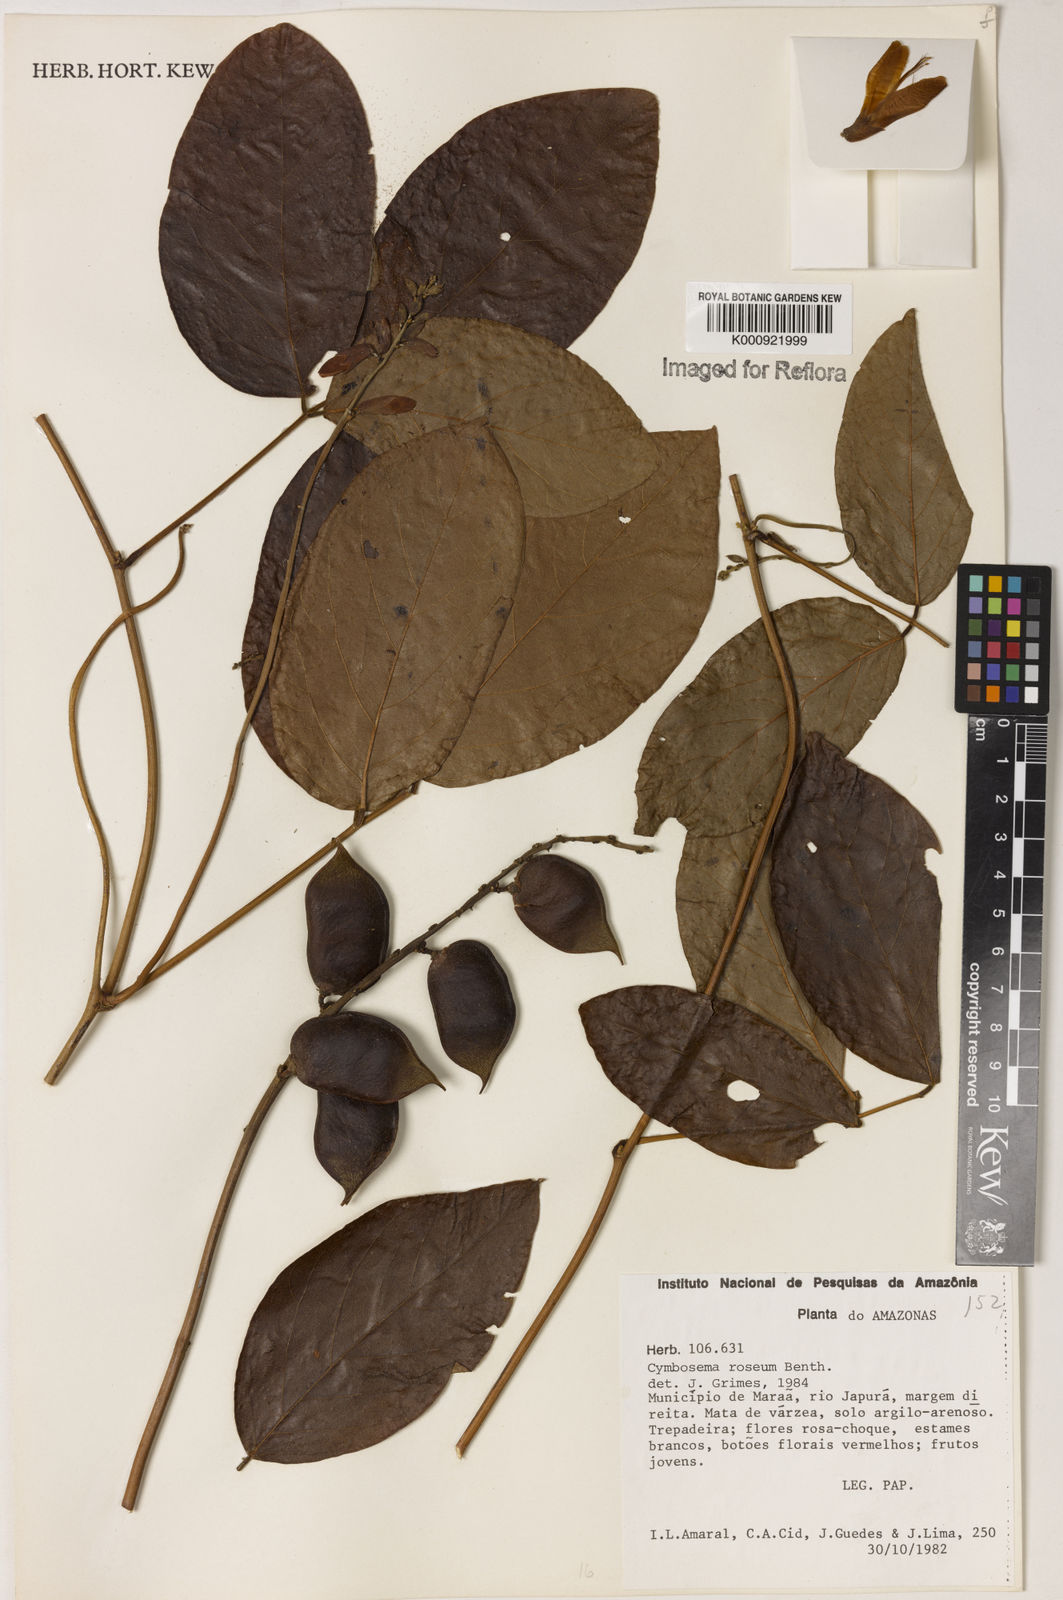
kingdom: Plantae
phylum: Tracheophyta
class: Magnoliopsida
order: Fabales
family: Fabaceae
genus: Cymbosema
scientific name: Cymbosema roseum
